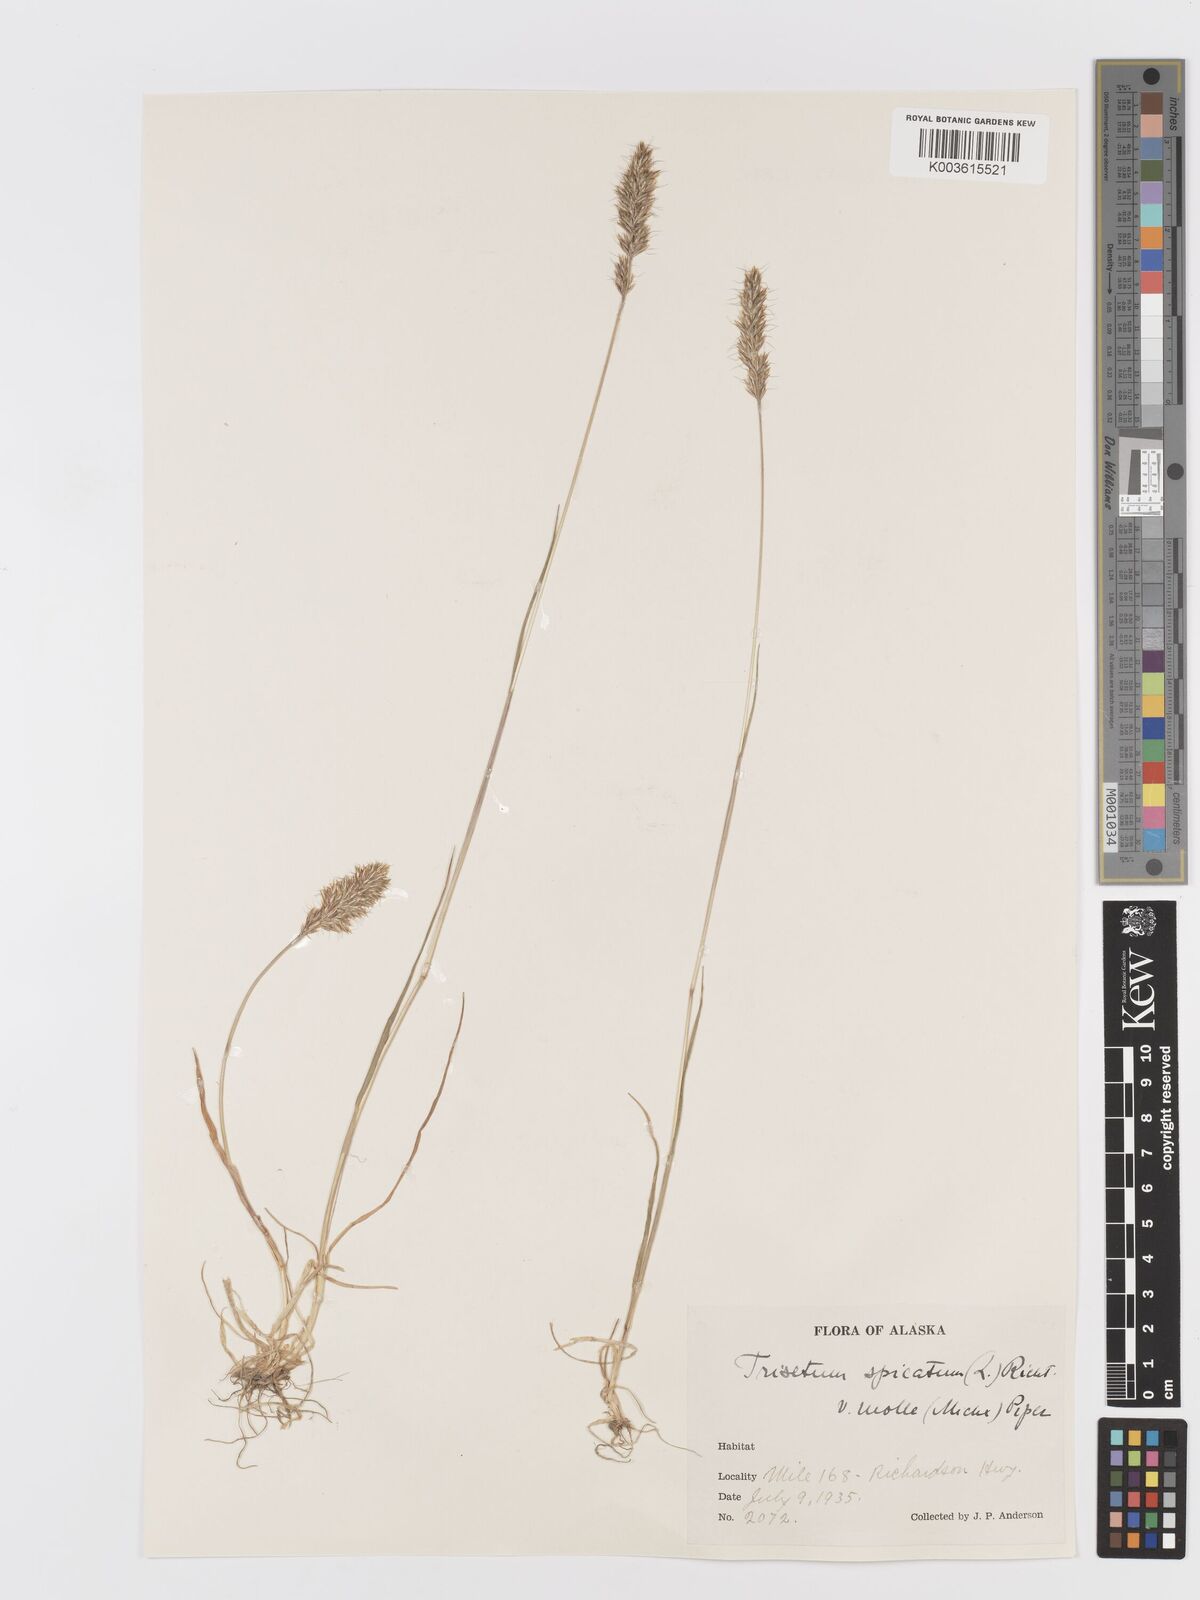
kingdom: Plantae
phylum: Tracheophyta
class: Liliopsida
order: Poales
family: Poaceae
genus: Koeleria
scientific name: Koeleria spicata
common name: Mountain trisetum
